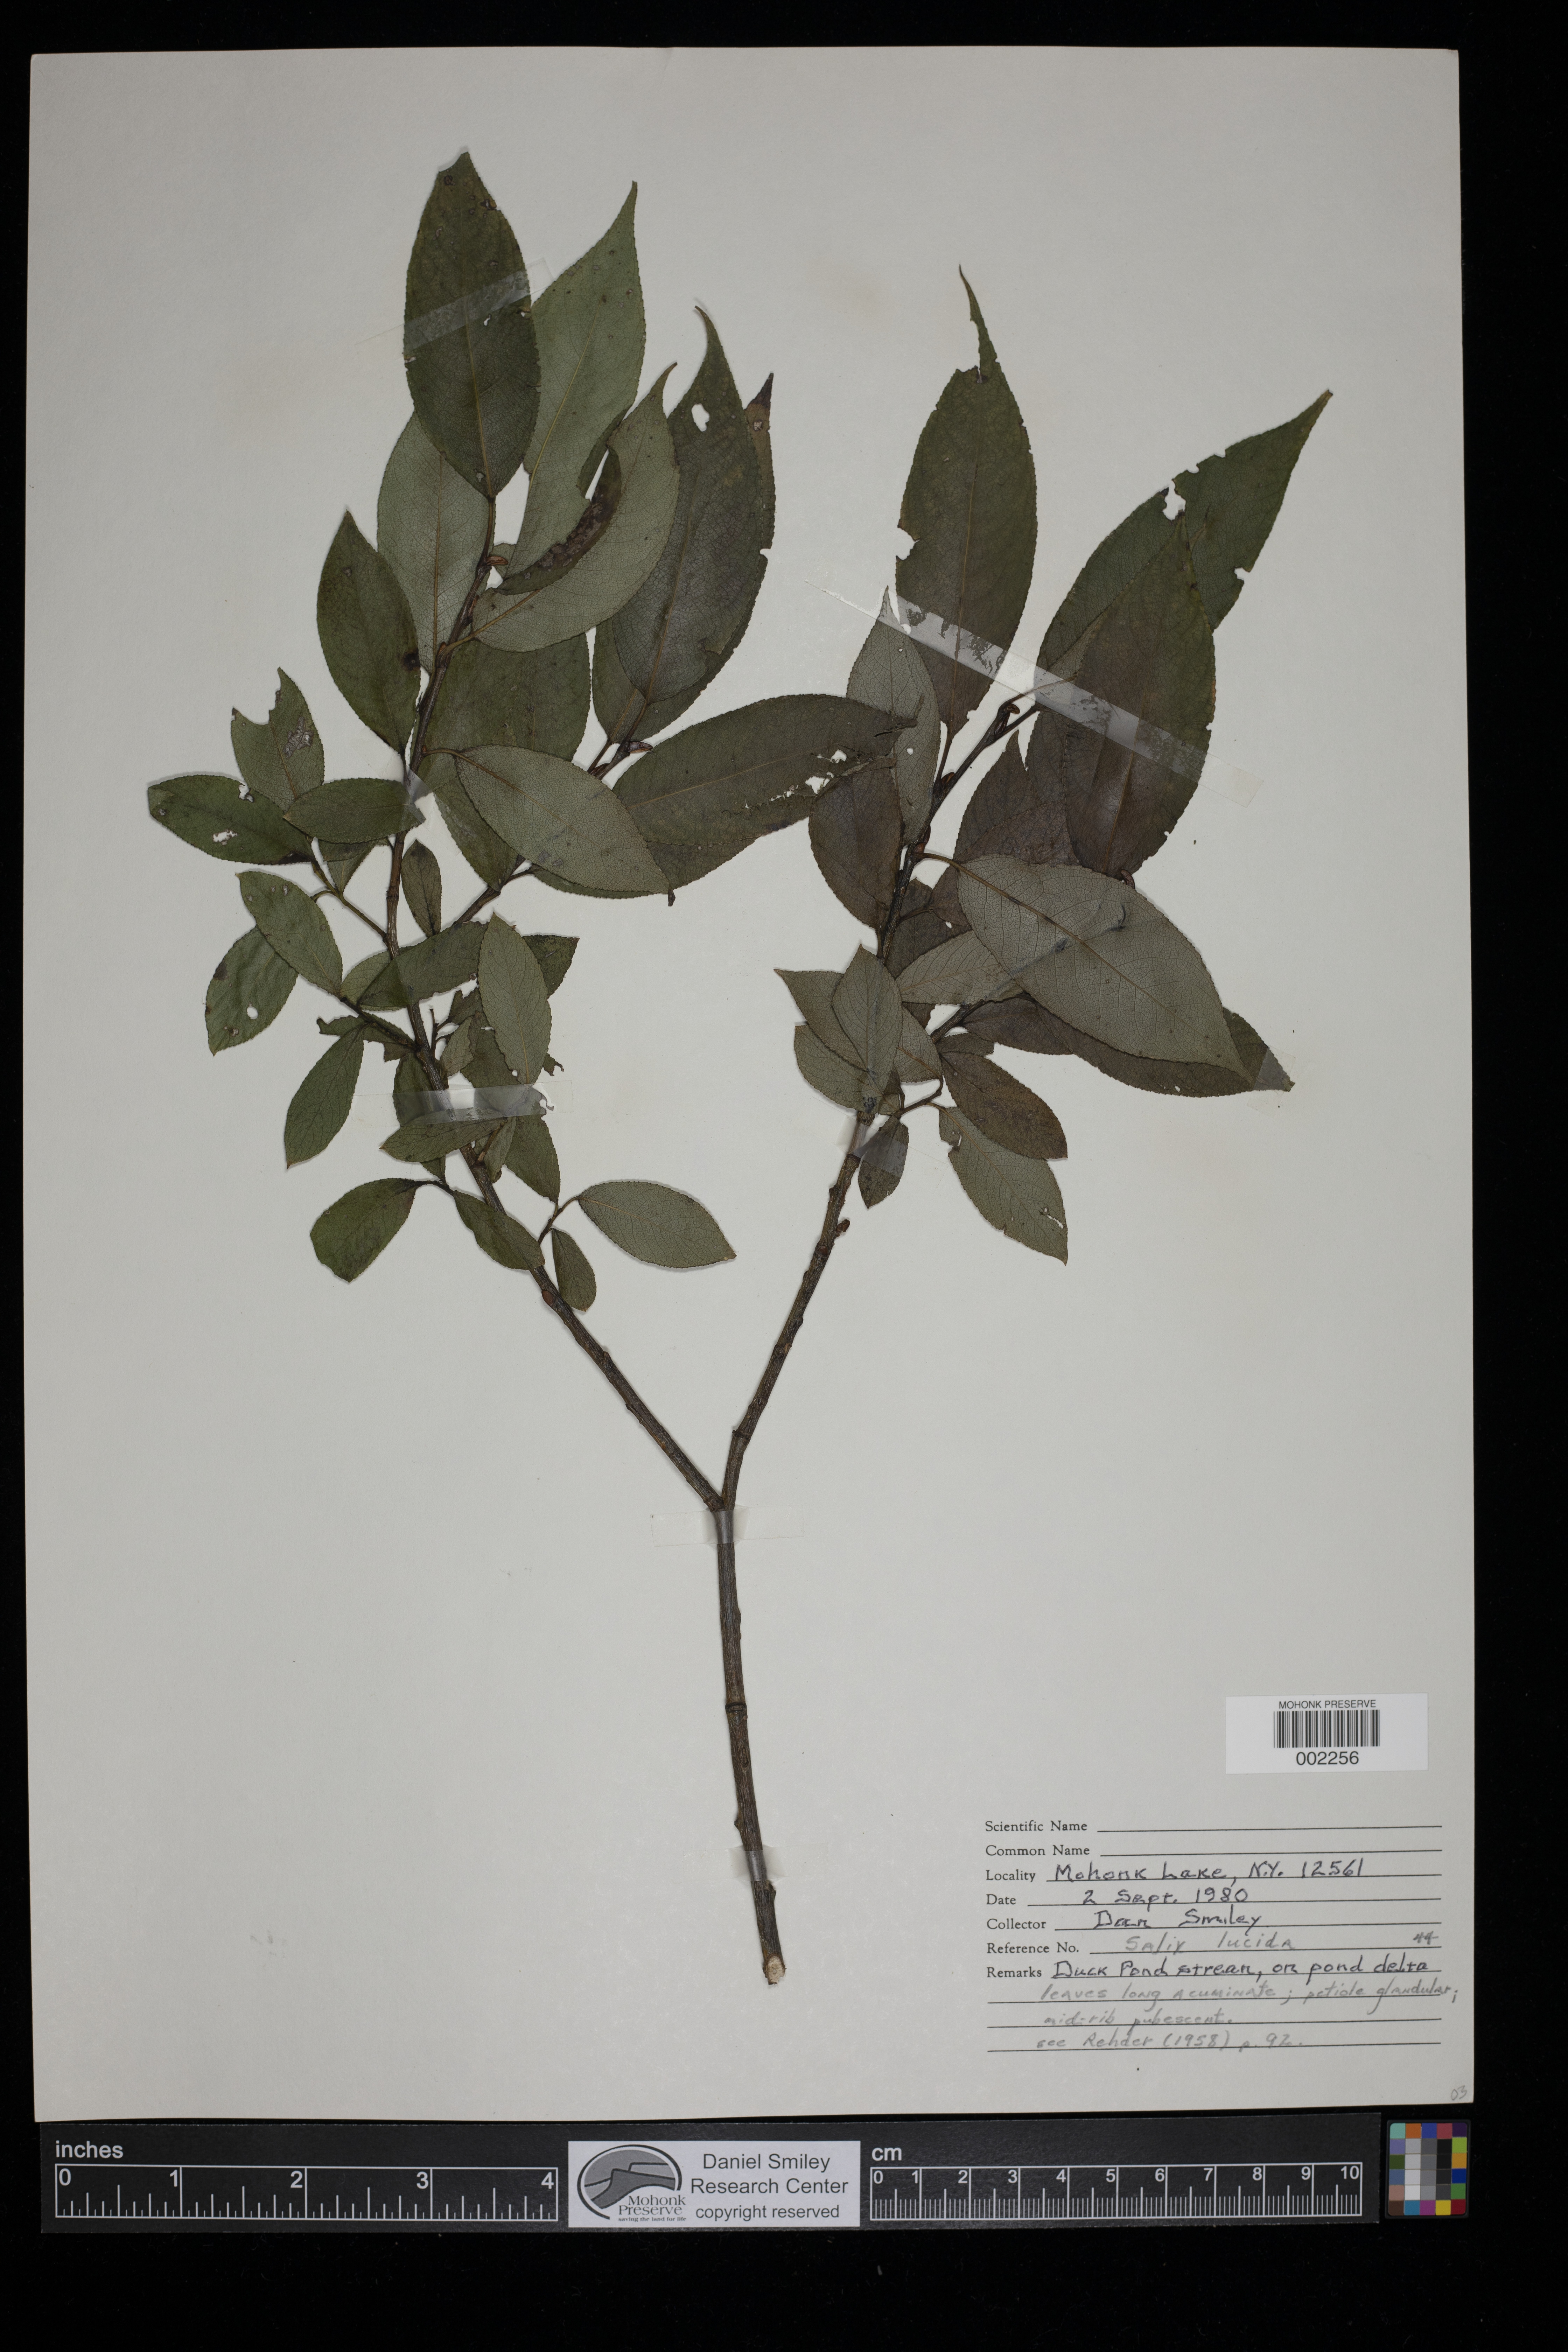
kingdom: Plantae
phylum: Tracheophyta
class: Magnoliopsida
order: Malpighiales
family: Salicaceae
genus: Salix
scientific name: Salix lucida
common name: Shining willow
